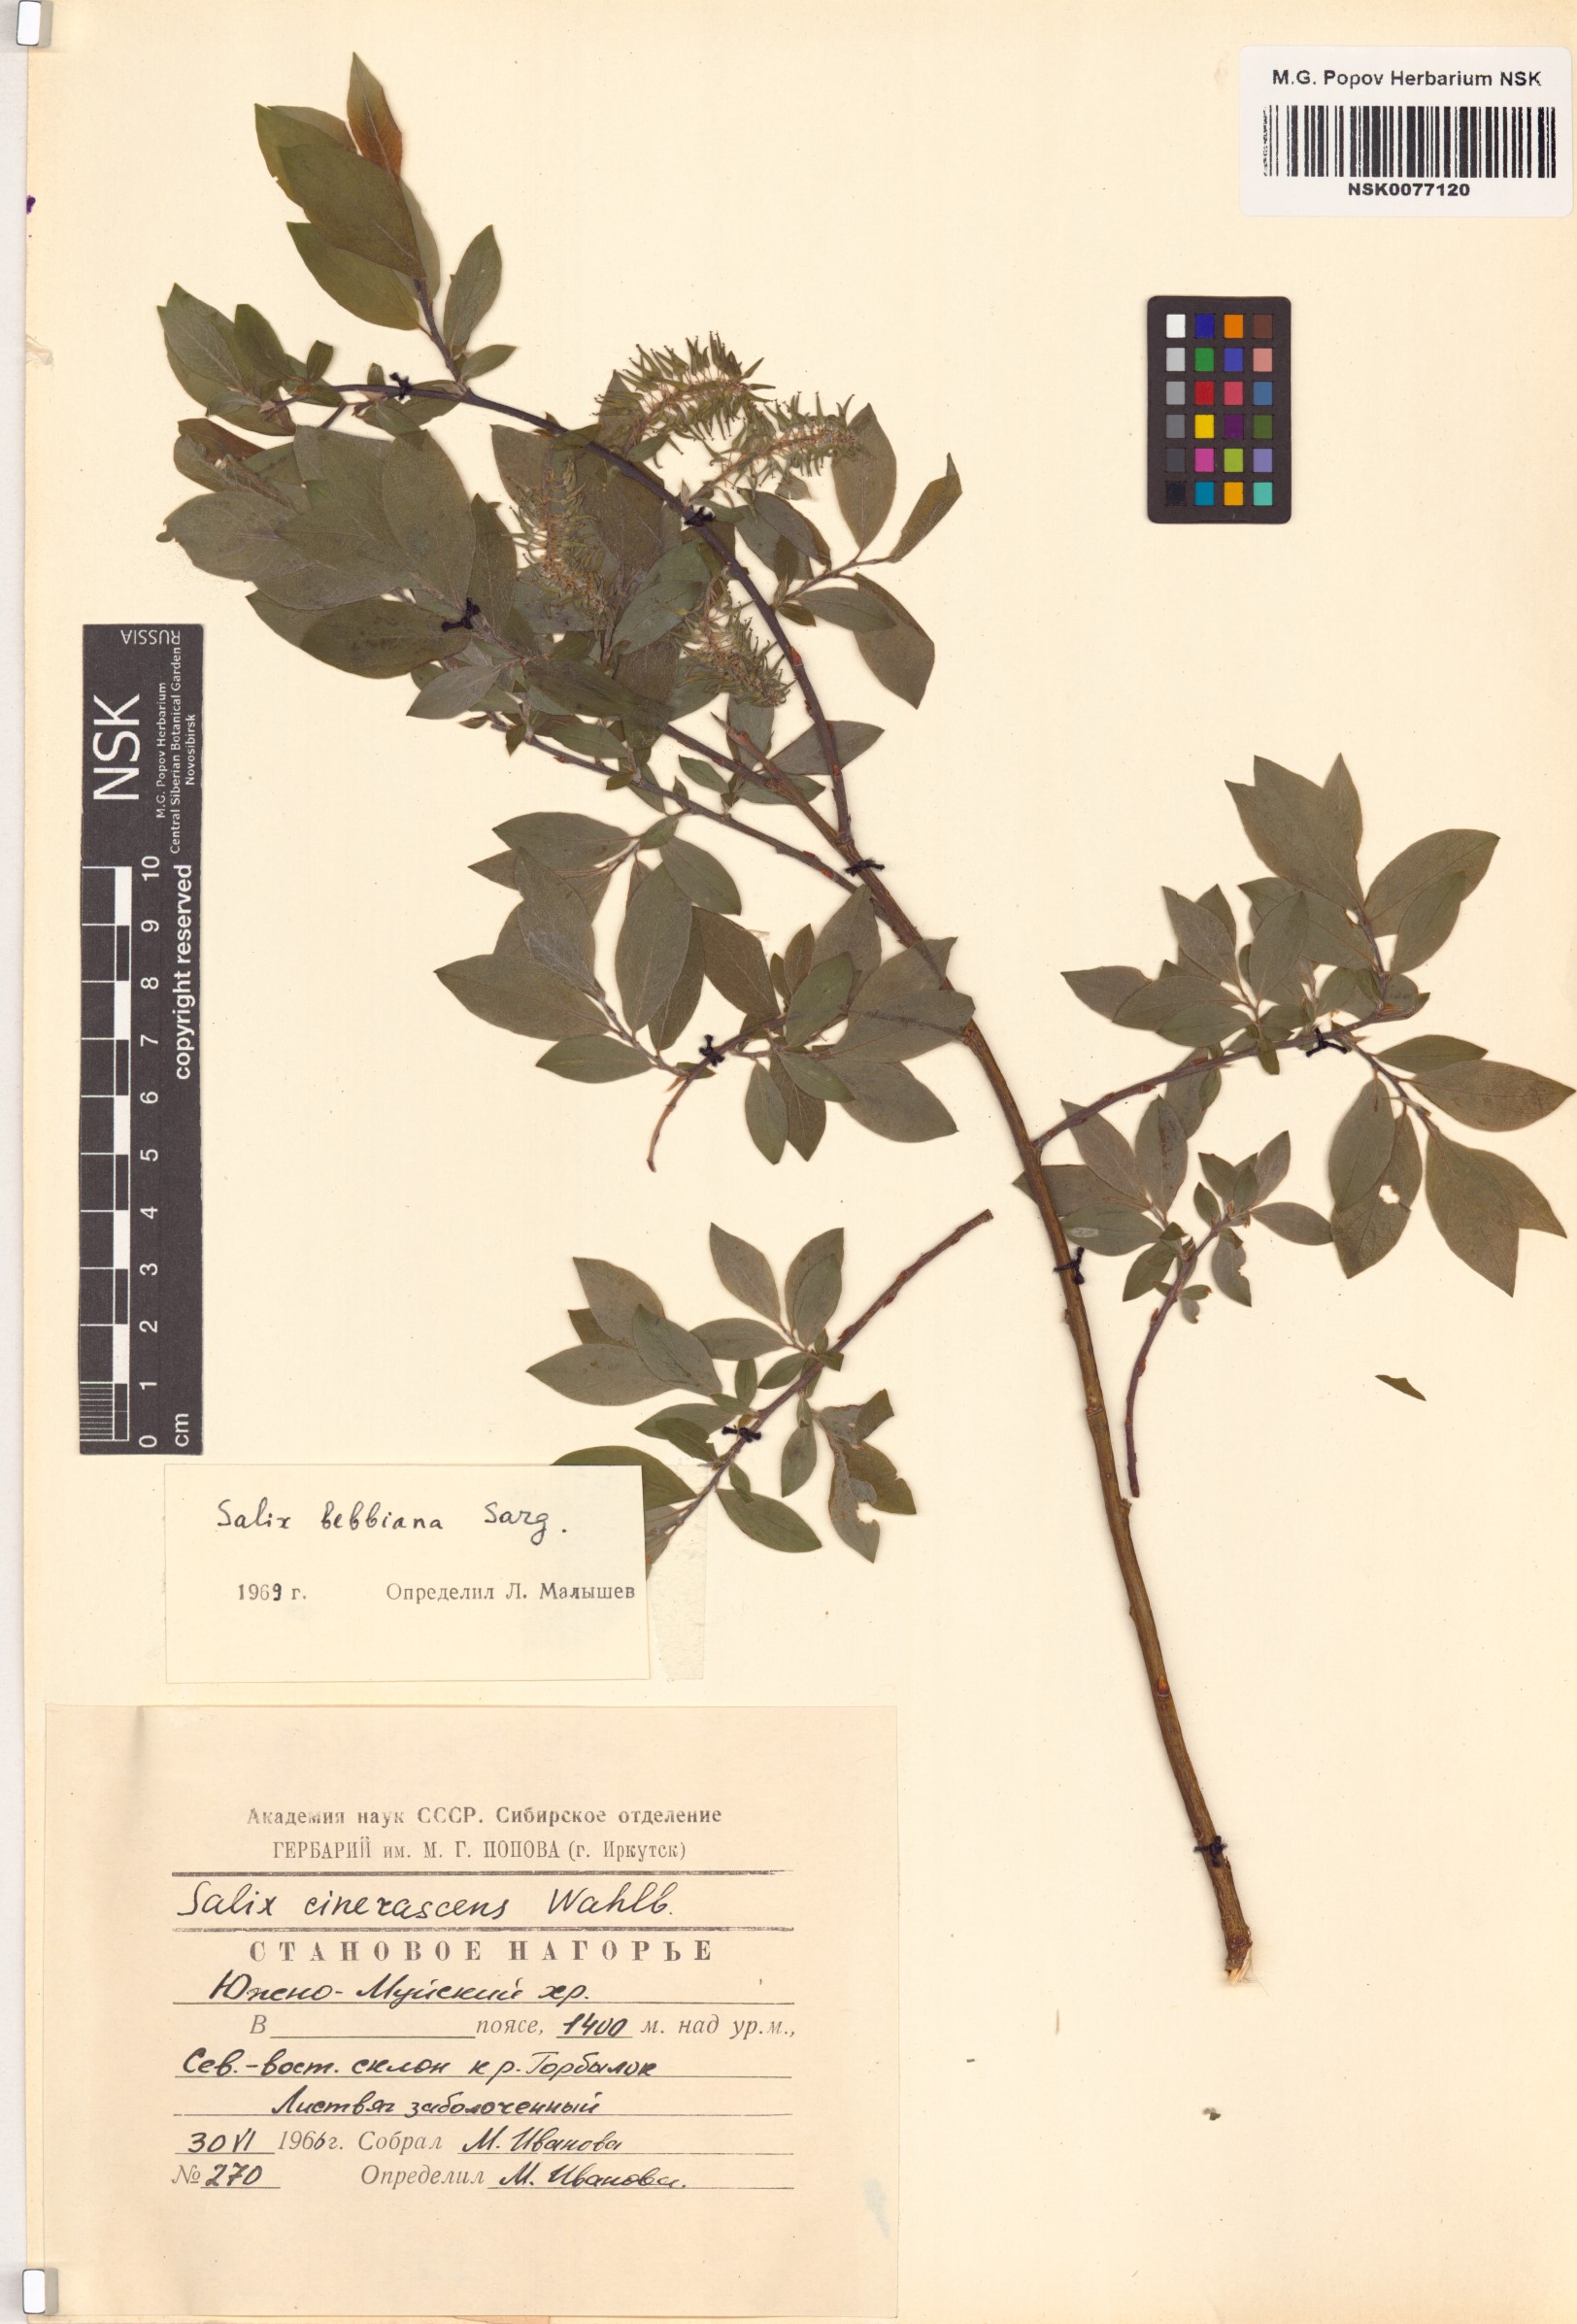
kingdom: Plantae
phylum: Tracheophyta
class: Magnoliopsida
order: Malpighiales
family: Salicaceae
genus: Salix
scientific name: Salix bebbiana
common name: Bebb's willow
